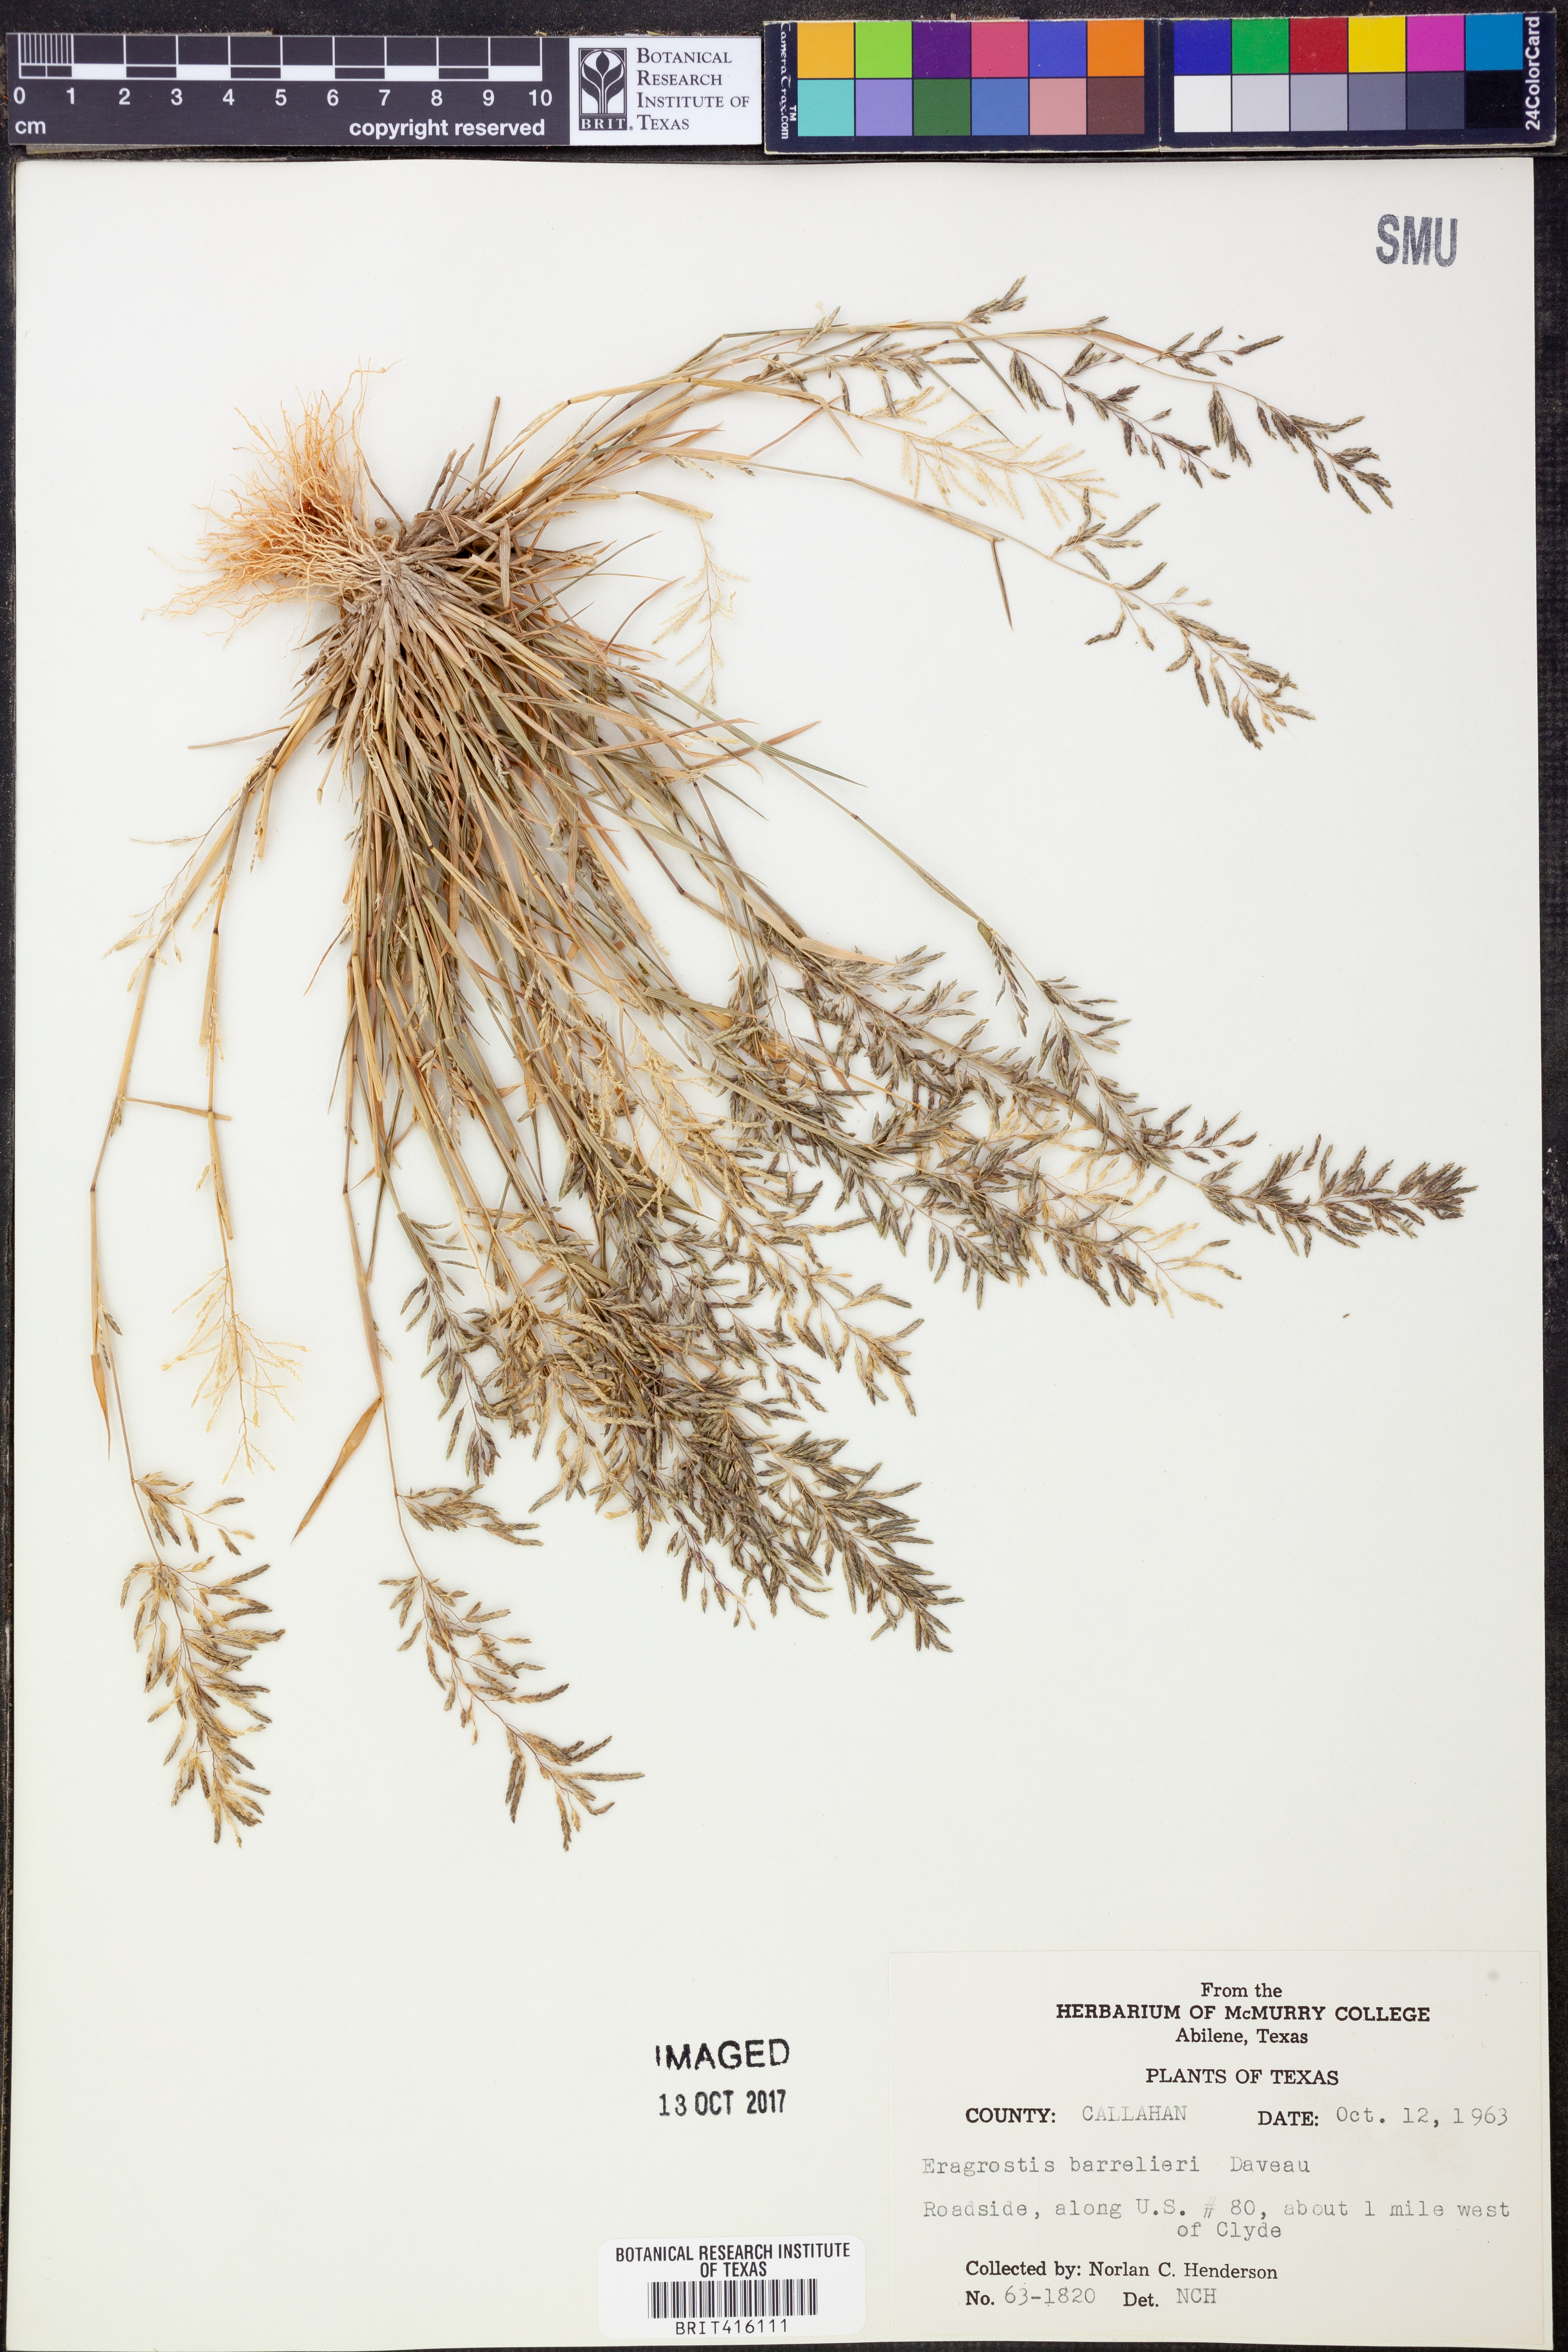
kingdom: Plantae
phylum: Tracheophyta
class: Liliopsida
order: Poales
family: Poaceae
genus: Eragrostis
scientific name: Eragrostis barrelieri
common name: Mediterranean lovegrass
